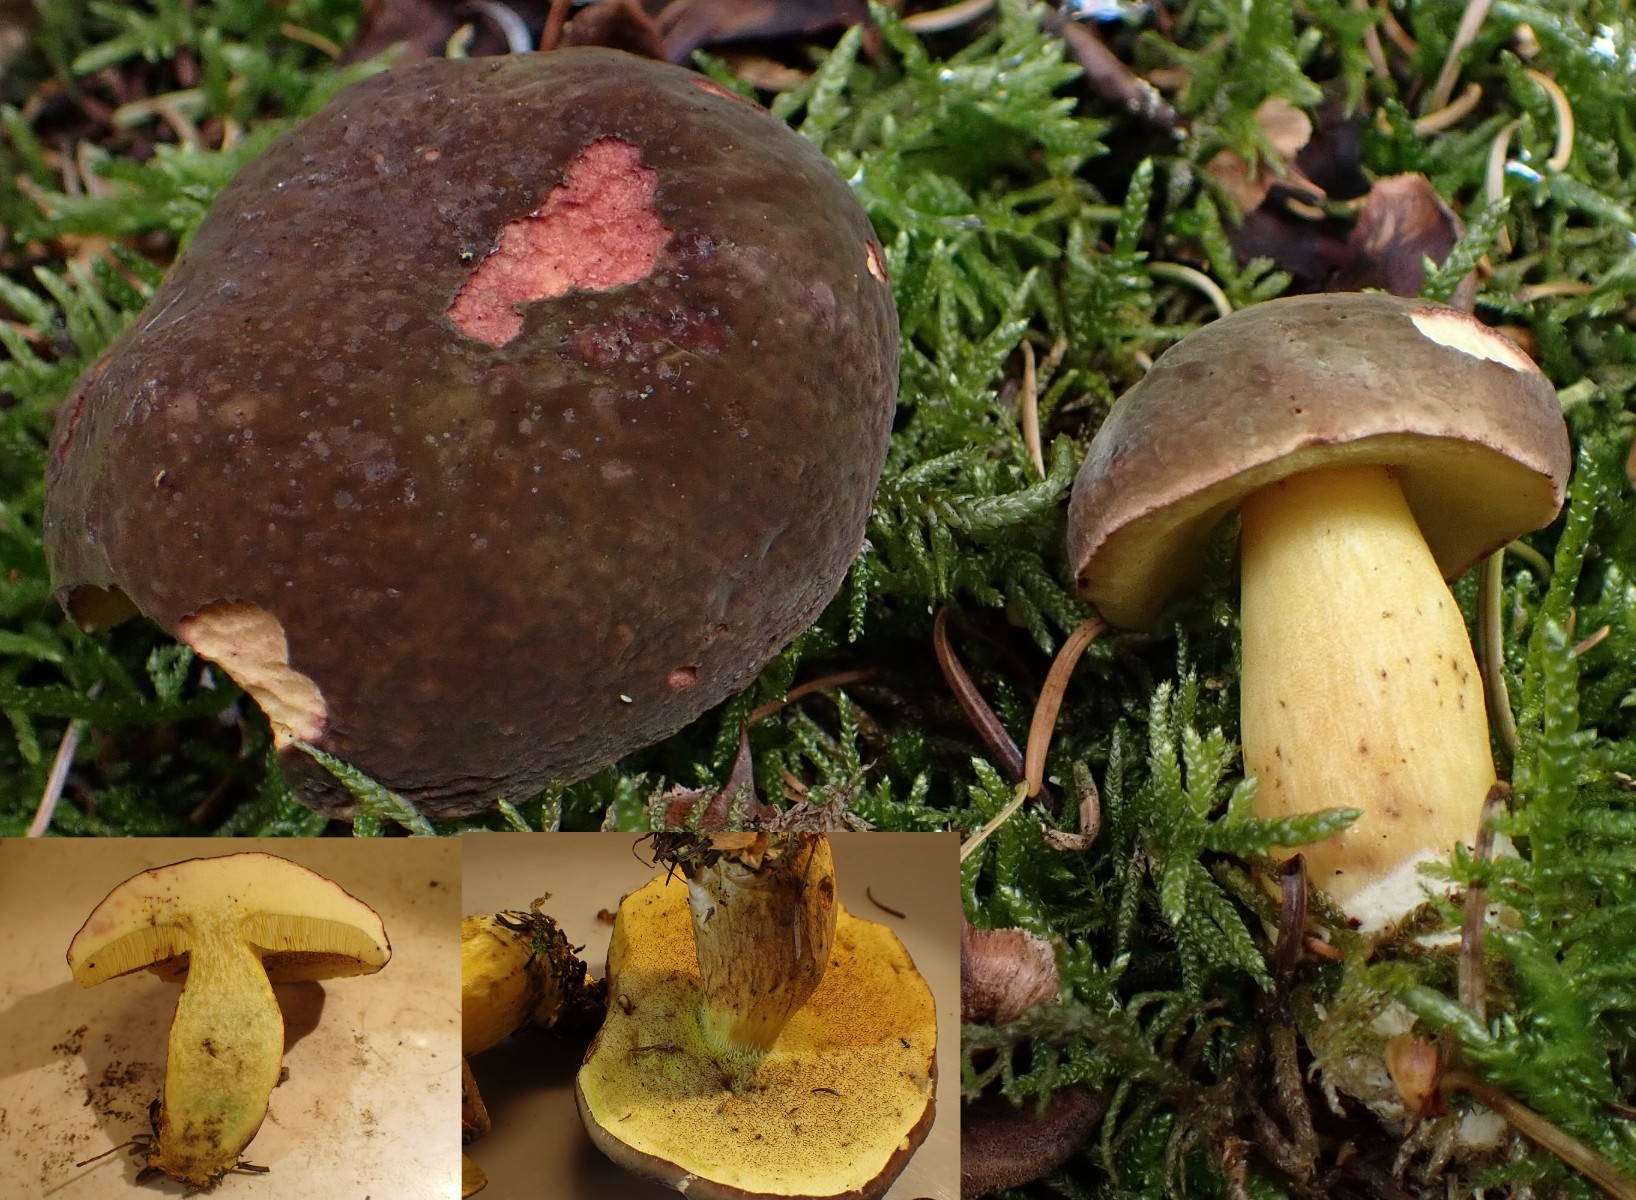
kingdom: Fungi
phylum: Basidiomycota
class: Agaricomycetes
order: Boletales
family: Boletaceae
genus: Xerocomellus
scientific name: Xerocomellus pruinatus
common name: dugget rørhat
